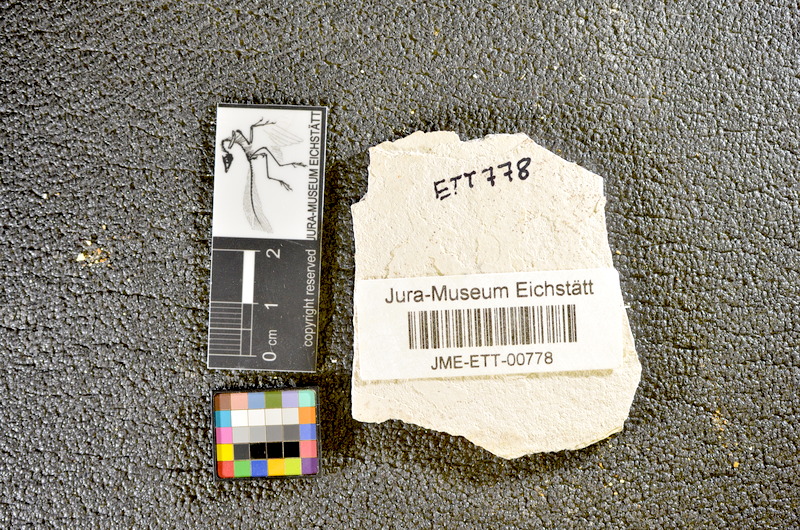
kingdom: Animalia
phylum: Chordata
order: Salmoniformes
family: Orthogonikleithridae
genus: Orthogonikleithrus
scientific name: Orthogonikleithrus hoelli
